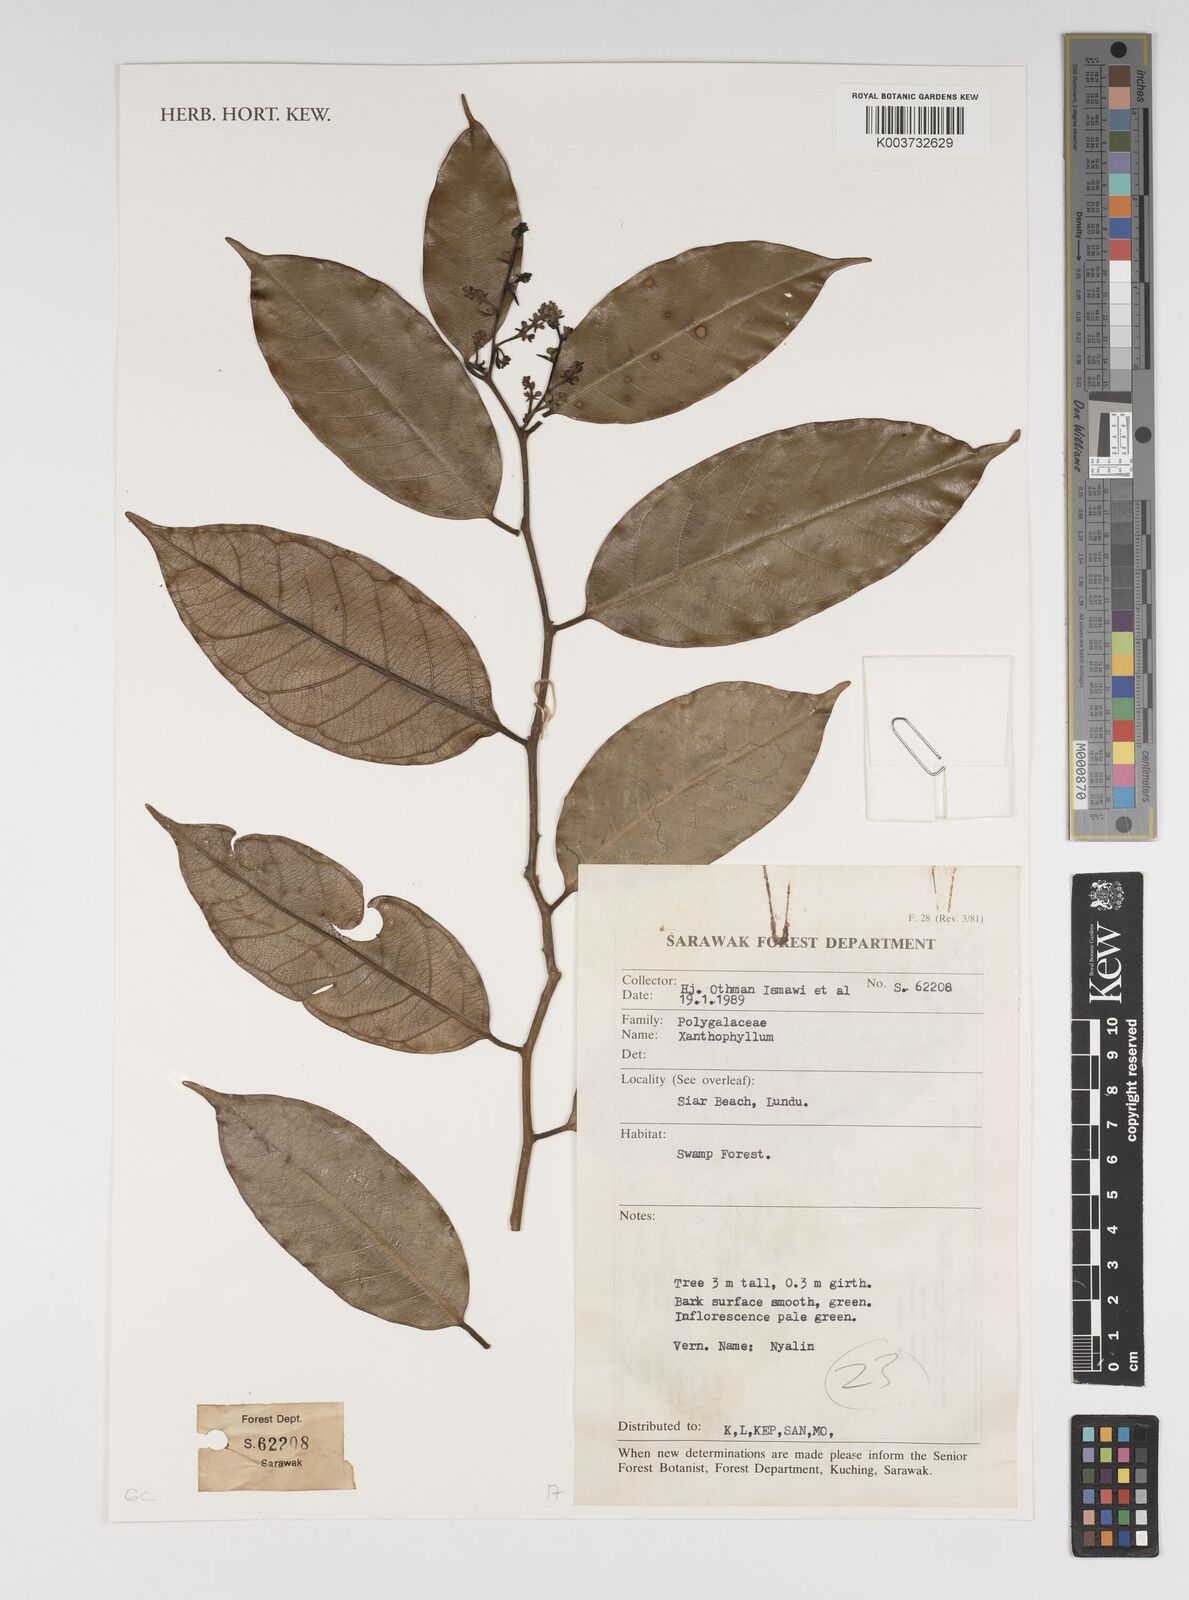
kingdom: Plantae
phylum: Tracheophyta
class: Magnoliopsida
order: Fabales
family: Polygalaceae
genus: Xanthophyllum
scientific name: Xanthophyllum
